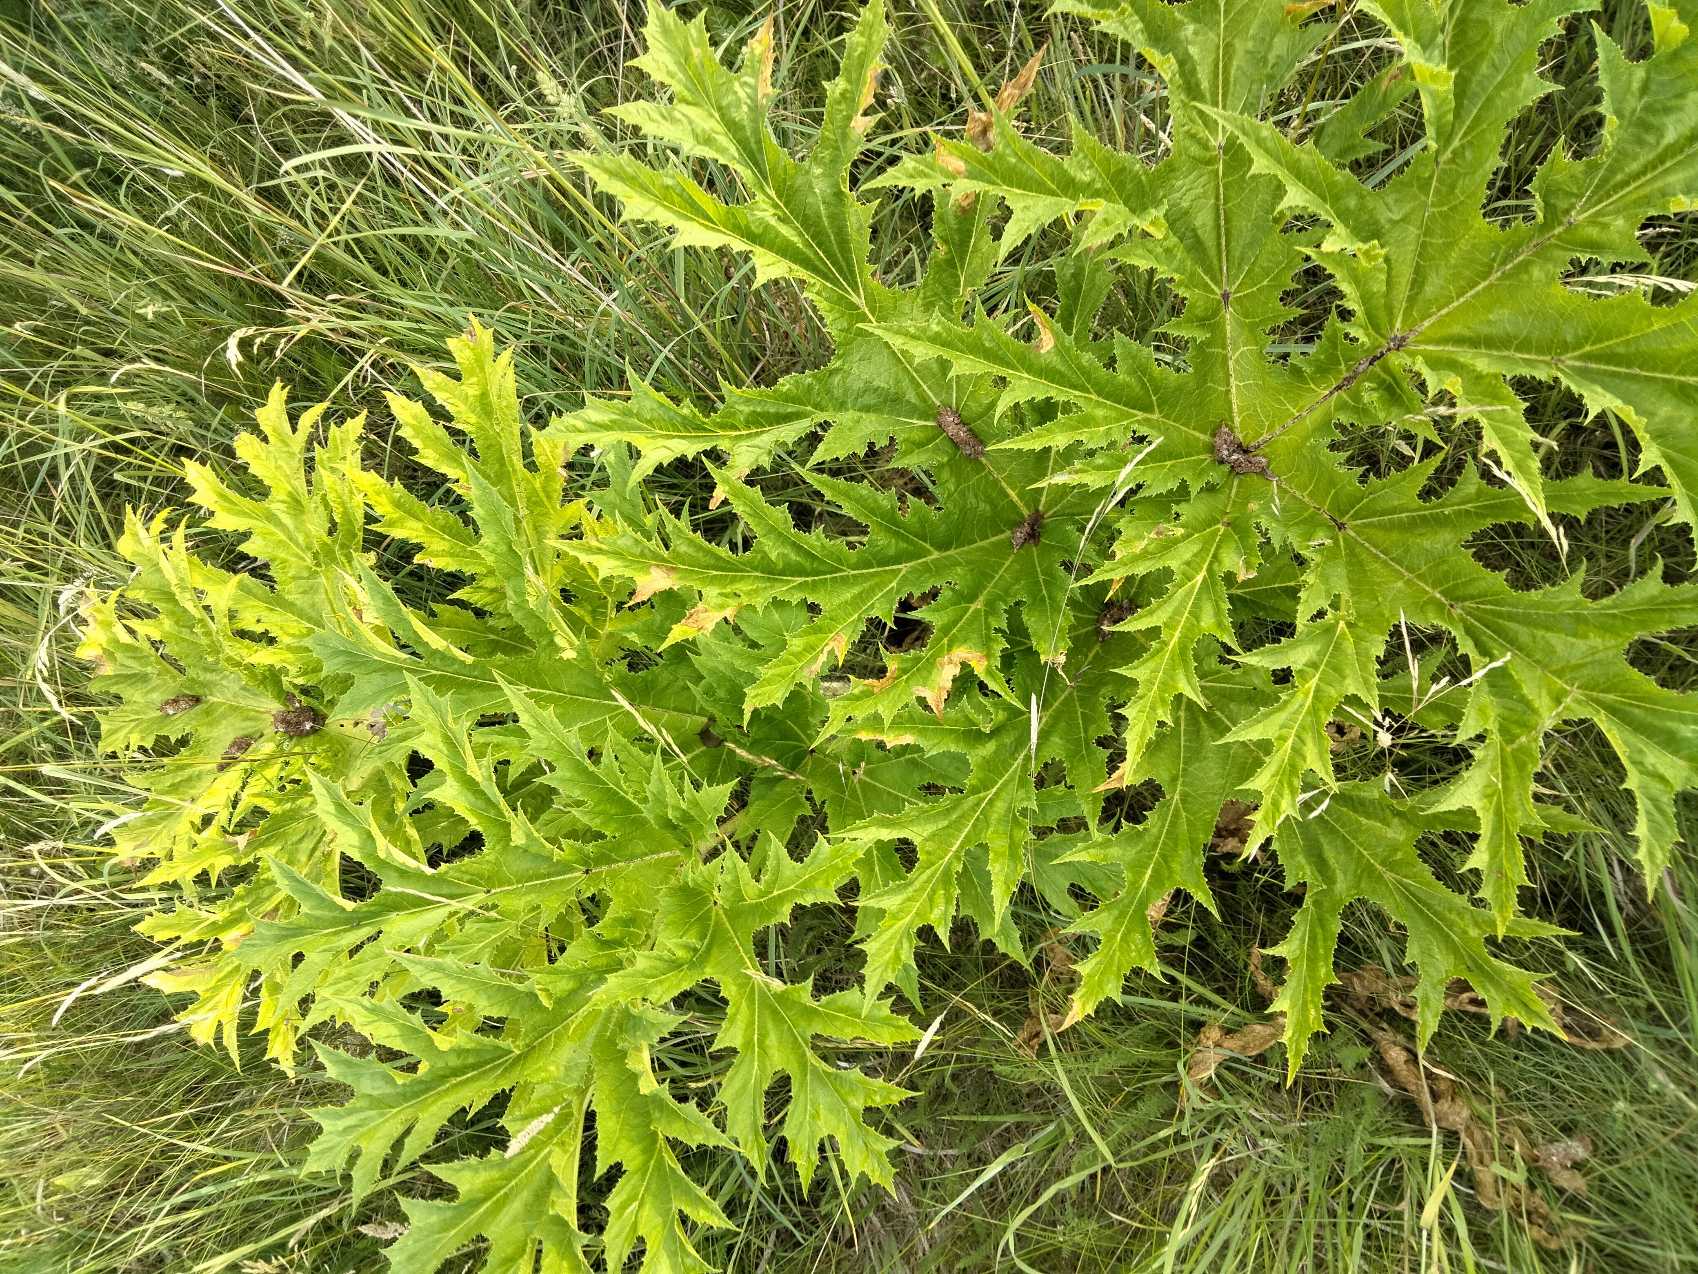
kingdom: Plantae
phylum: Tracheophyta
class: Magnoliopsida
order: Apiales
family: Apiaceae
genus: Heracleum
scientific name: Heracleum mantegazzianum
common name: Kæmpe-bjørneklo
